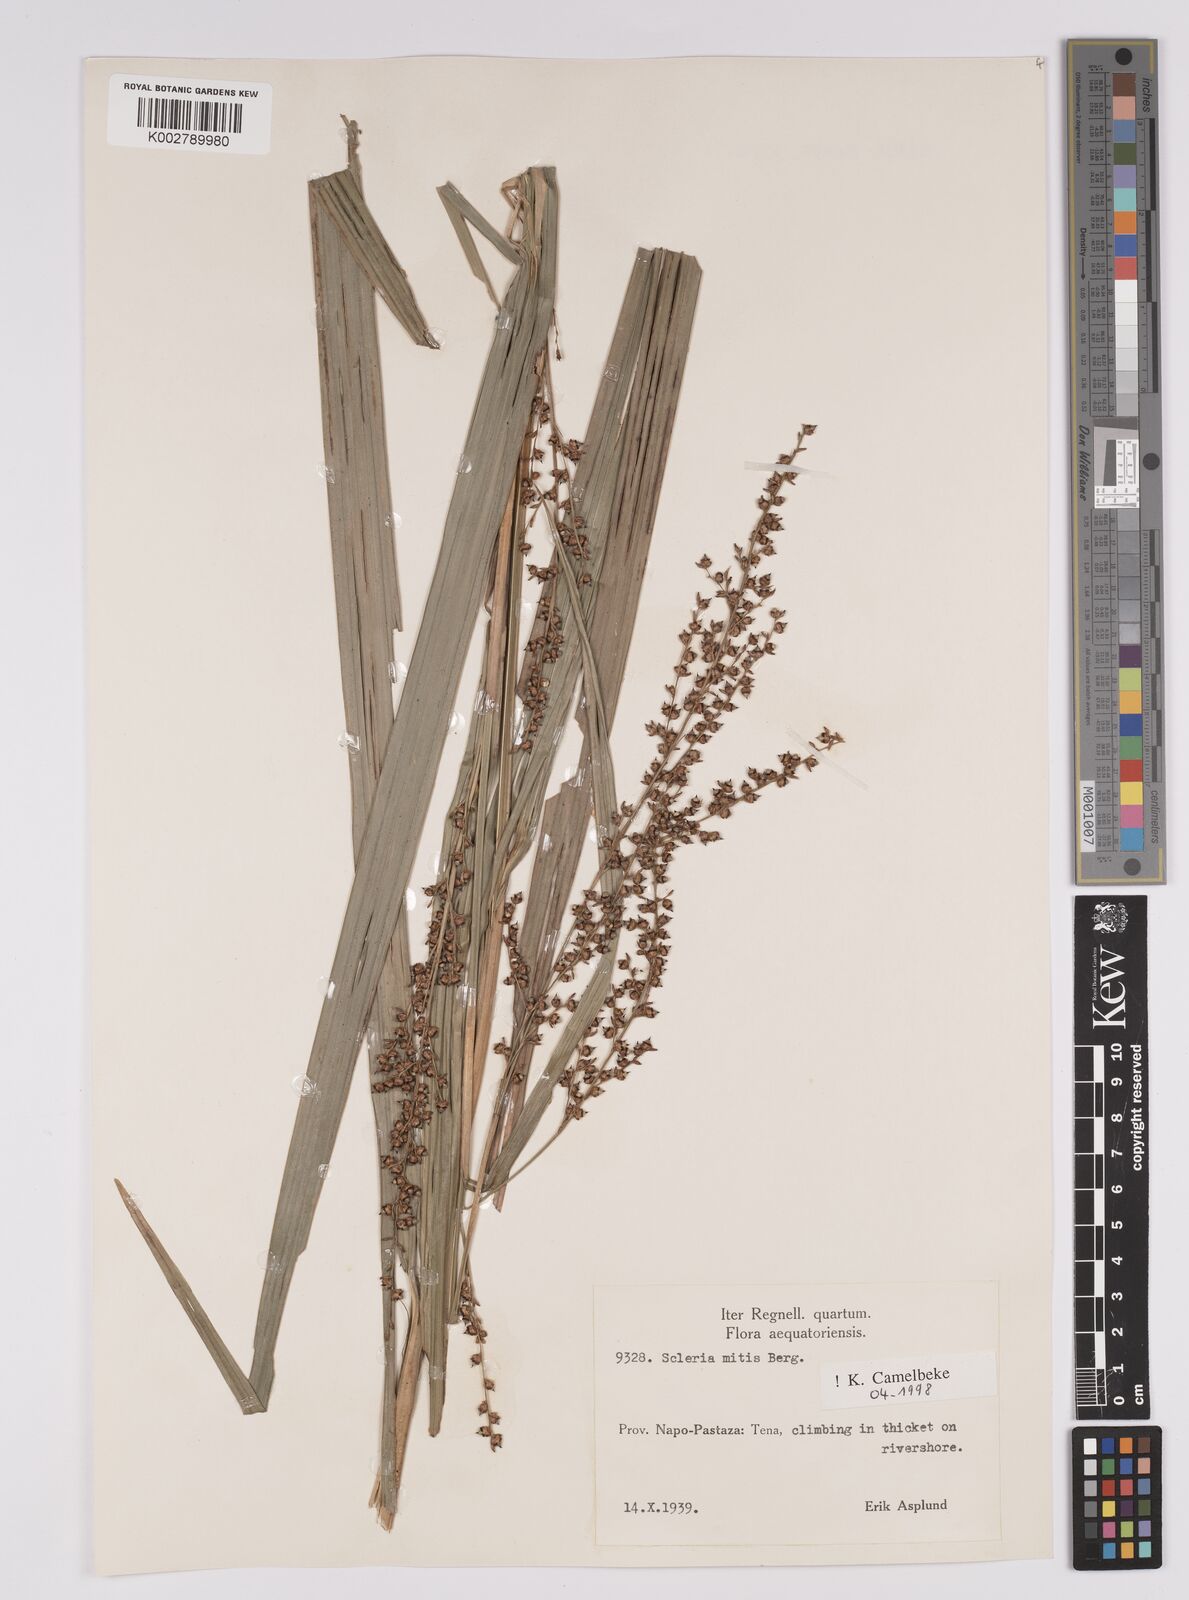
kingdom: Plantae
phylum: Tracheophyta
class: Liliopsida
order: Poales
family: Cyperaceae
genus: Scleria
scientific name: Scleria mitis
